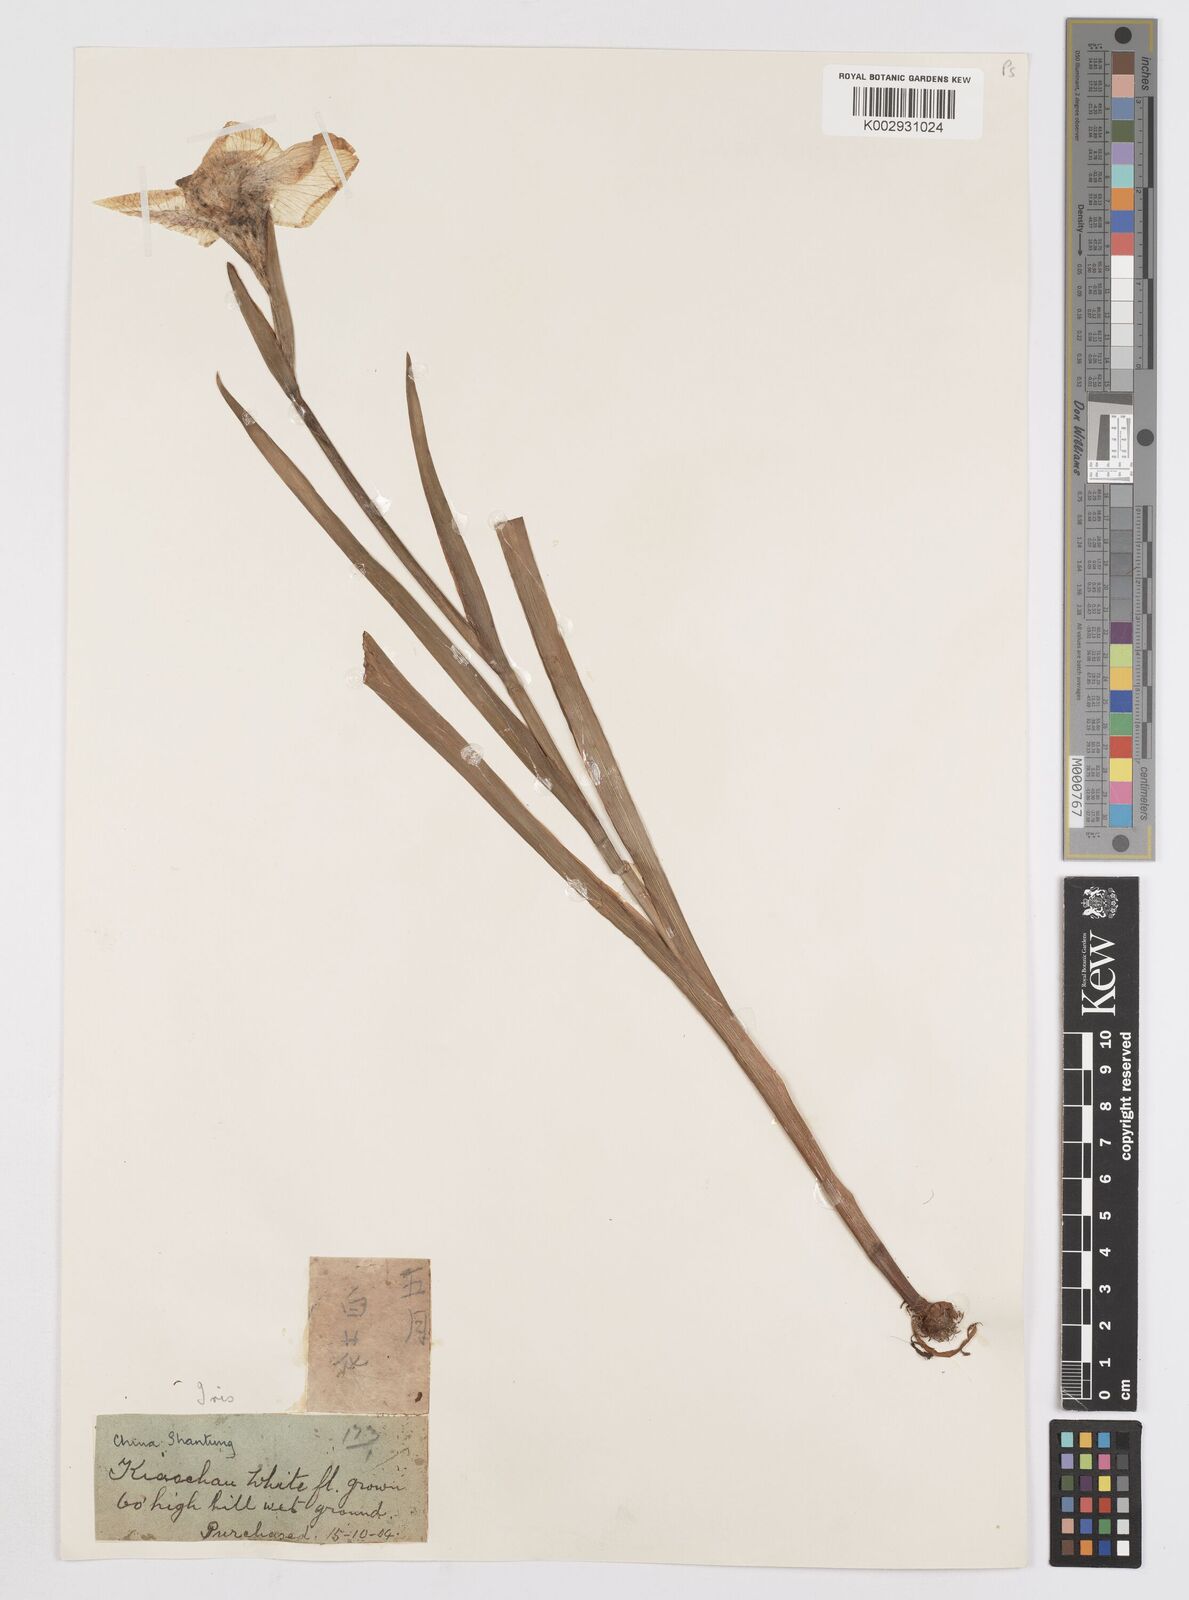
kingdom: Plantae
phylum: Tracheophyta
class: Liliopsida
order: Asparagales
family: Iridaceae
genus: Iris
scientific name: Iris
